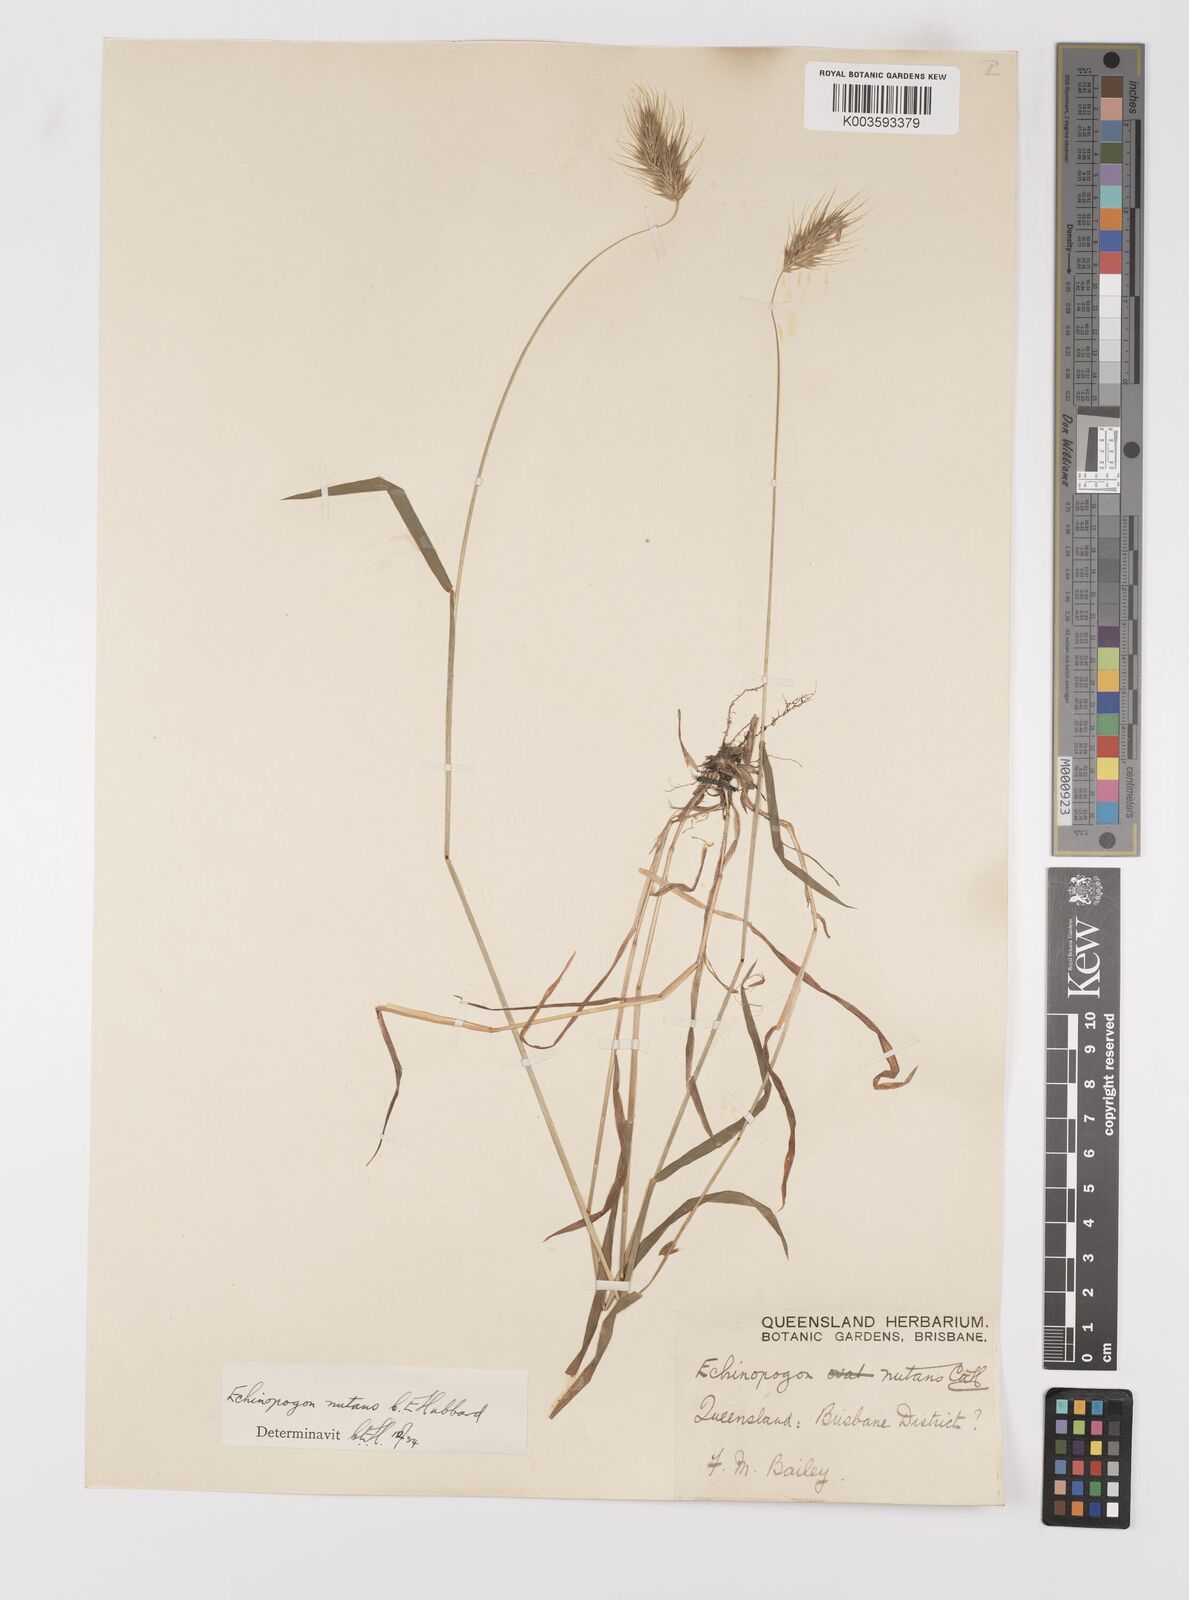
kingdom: Plantae
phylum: Tracheophyta
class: Liliopsida
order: Poales
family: Poaceae
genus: Echinopogon
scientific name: Echinopogon nutans
